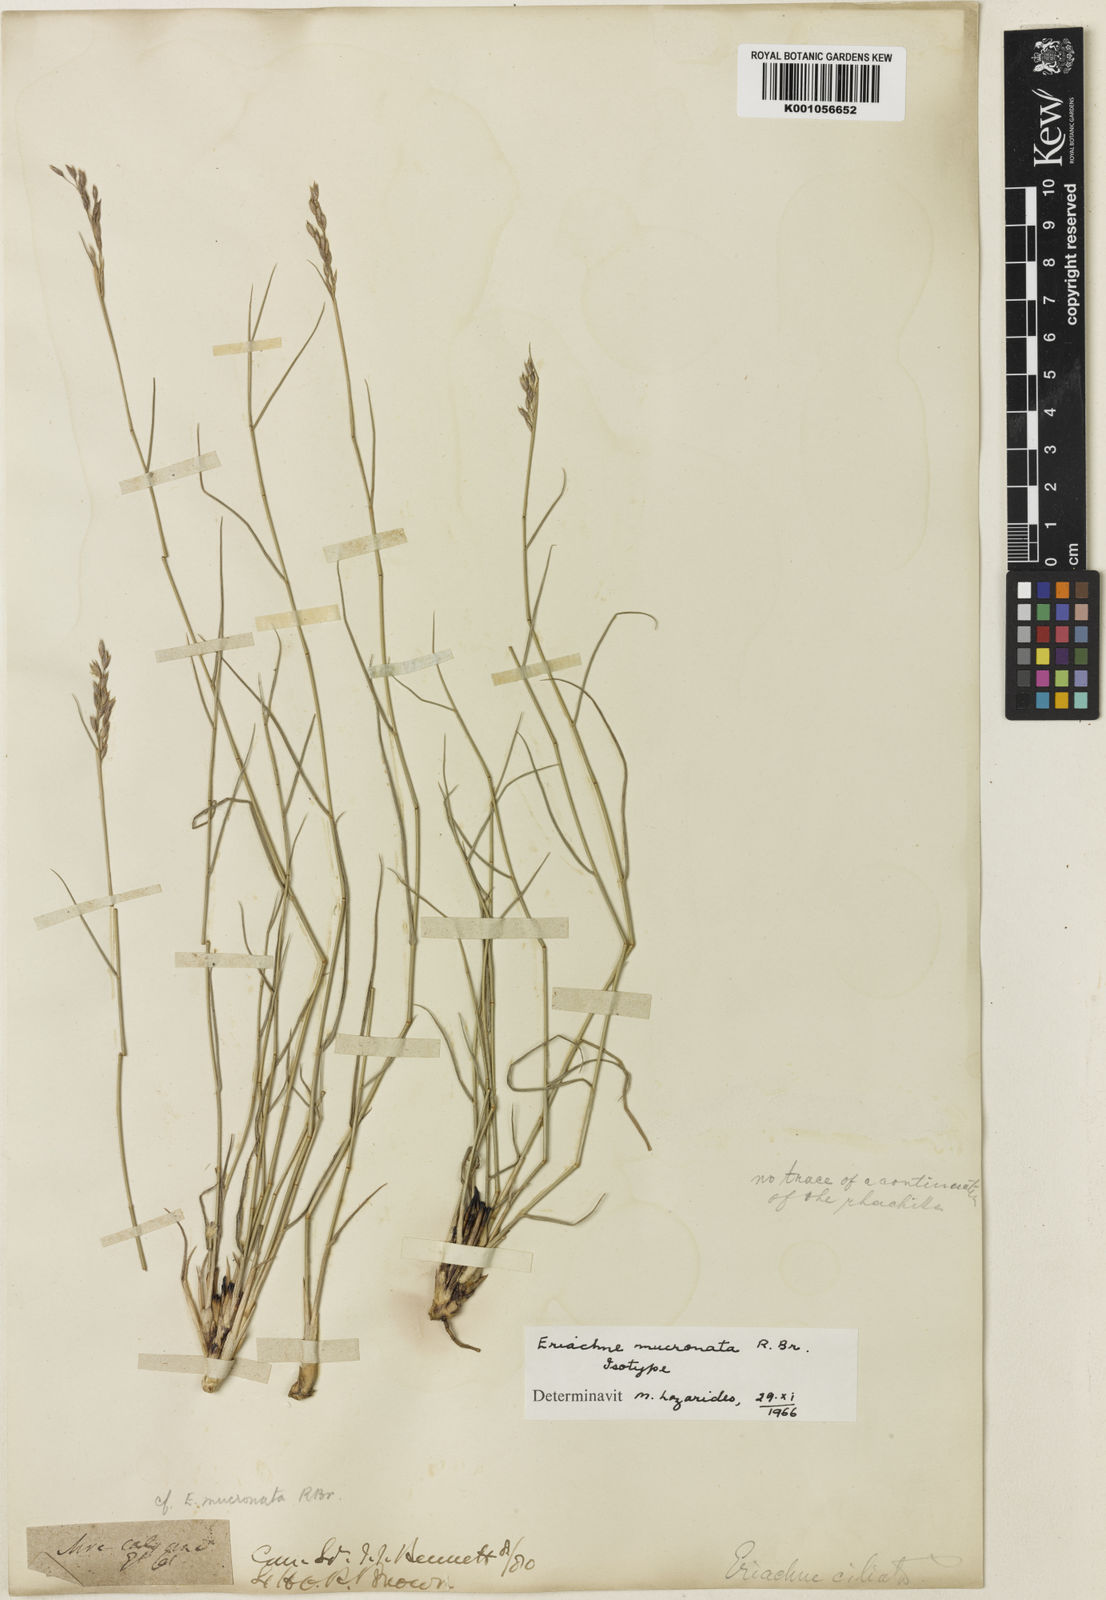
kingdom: Plantae
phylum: Tracheophyta
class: Liliopsida
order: Poales
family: Poaceae
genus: Eriachne
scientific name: Eriachne mucronata
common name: Mountain wanderrie grass
